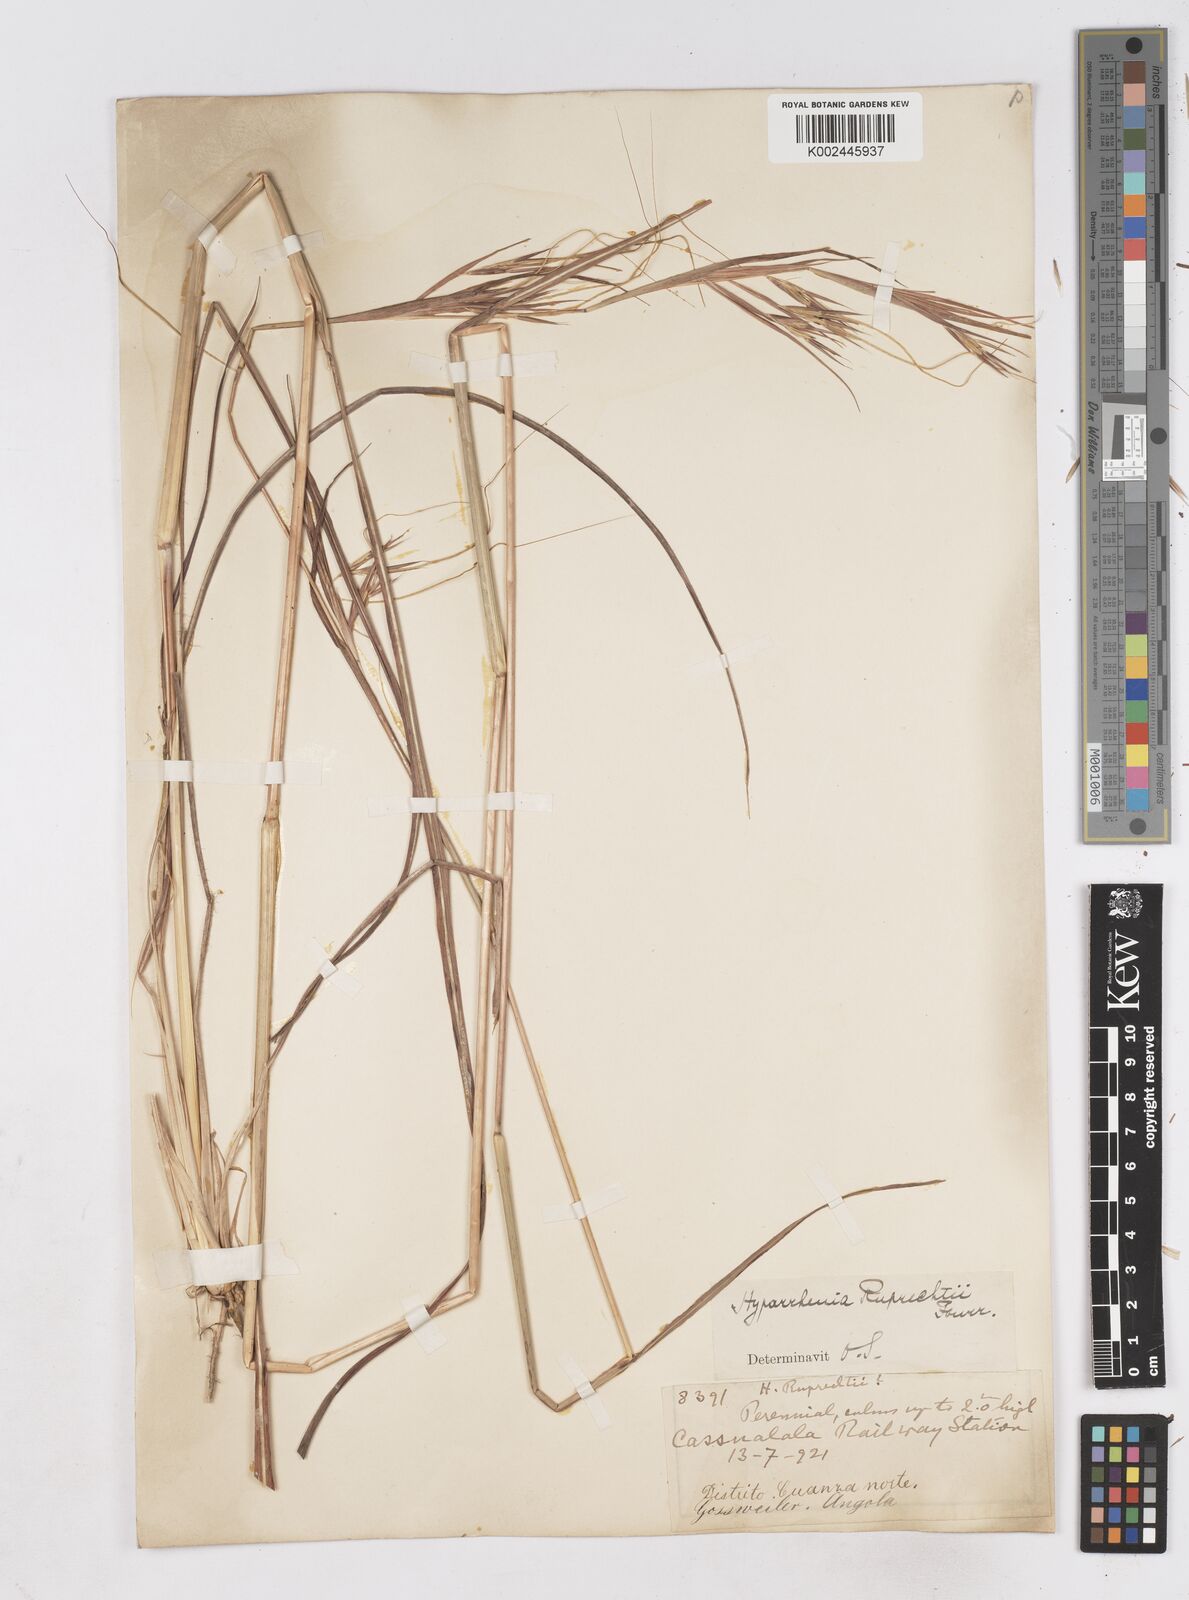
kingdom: Plantae
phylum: Tracheophyta
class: Liliopsida
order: Poales
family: Poaceae
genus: Hyperthelia
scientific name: Hyperthelia dissoluta
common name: Yellow thatching grass
